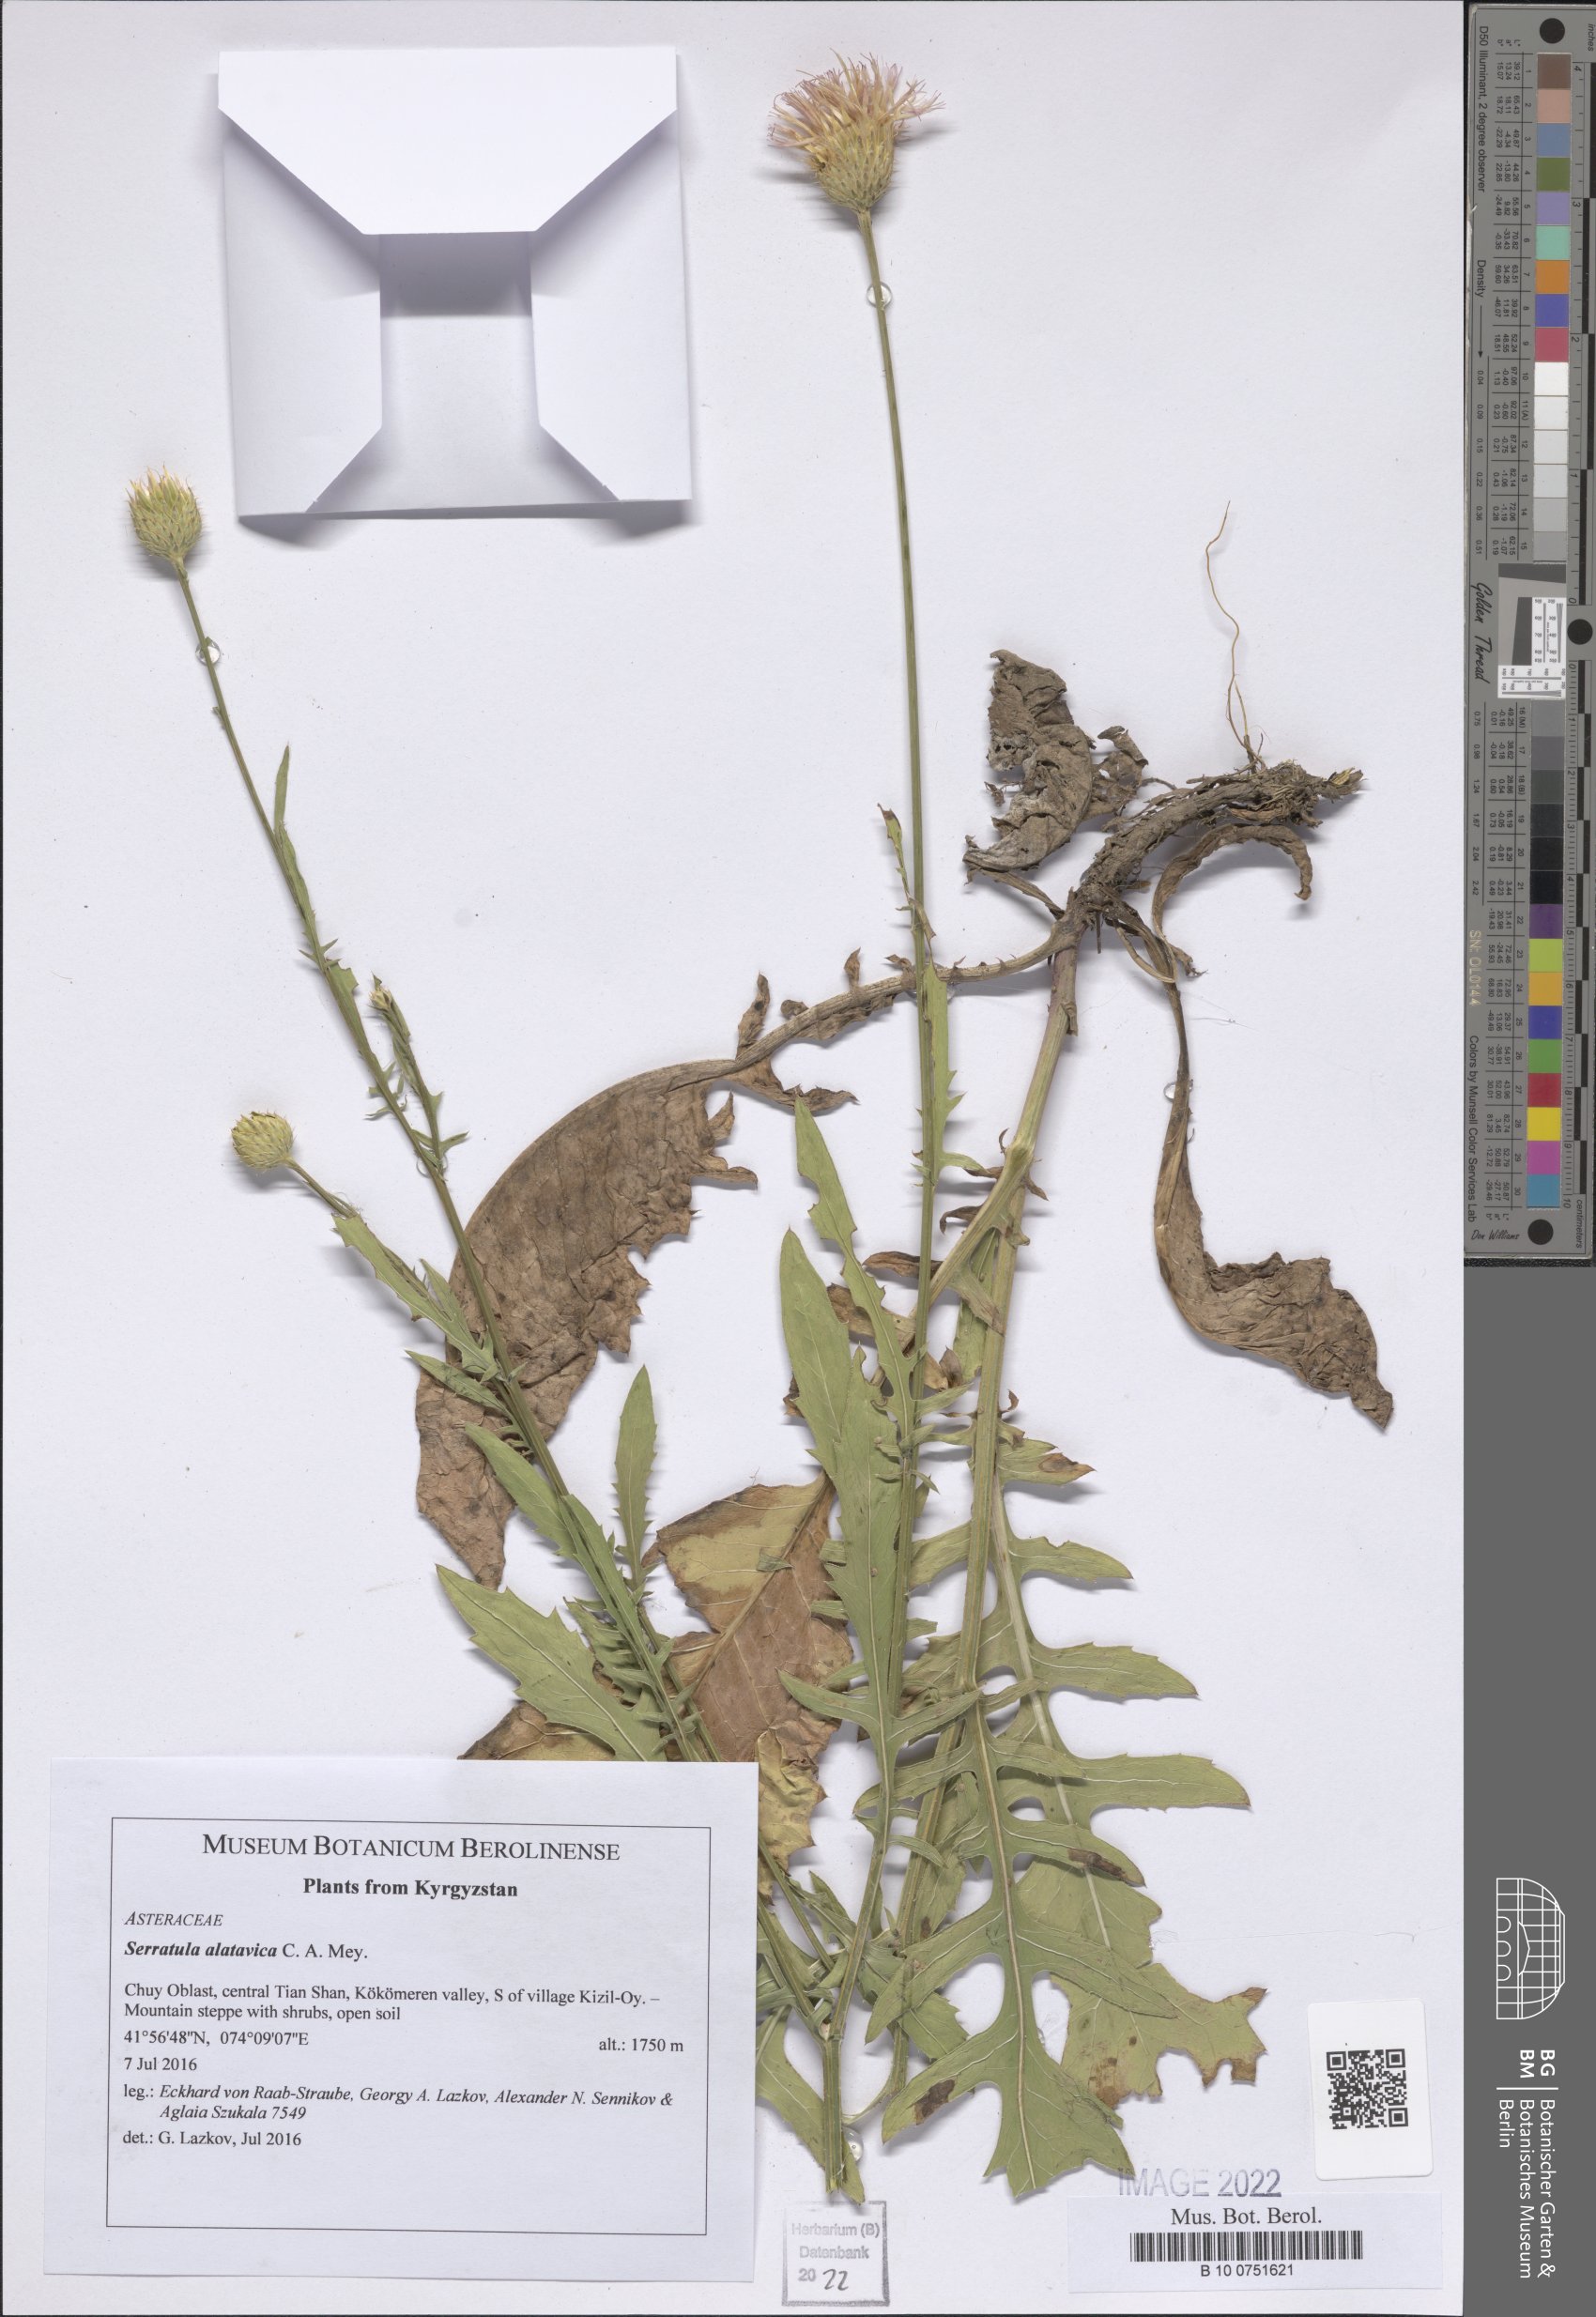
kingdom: Plantae
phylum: Tracheophyta
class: Magnoliopsida
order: Asterales
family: Asteraceae
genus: Klasea
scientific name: Klasea sogdiana
